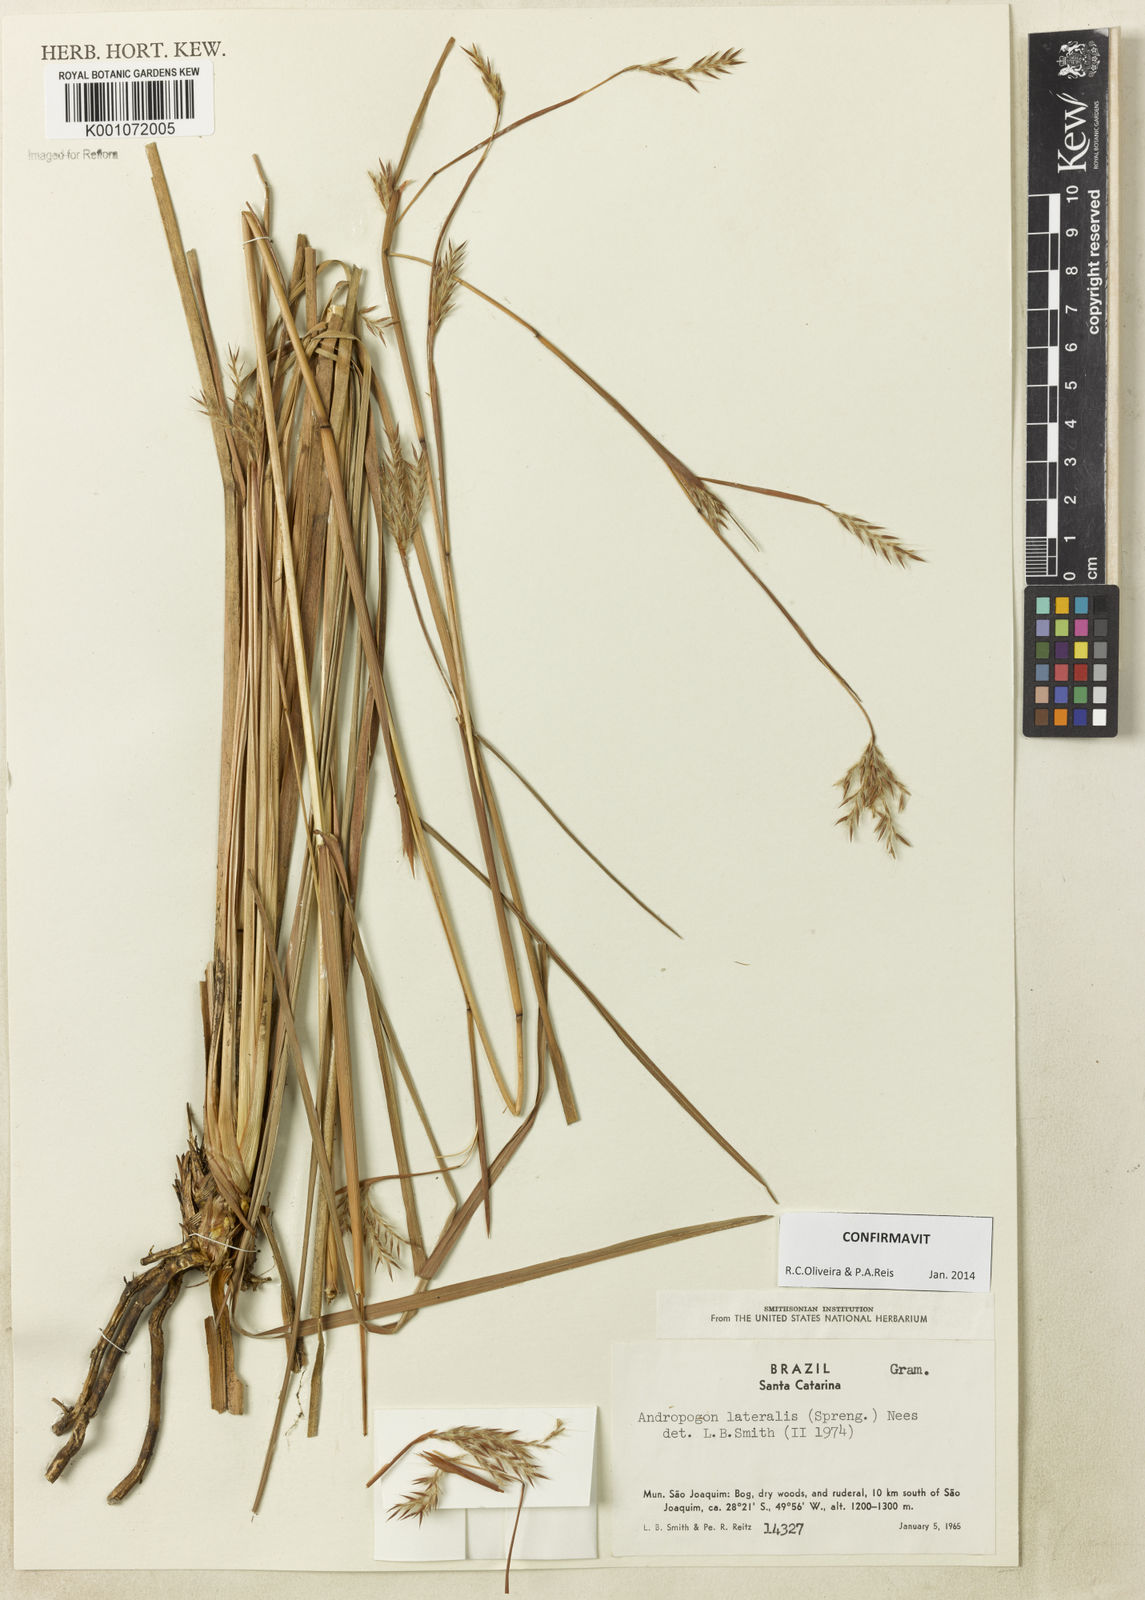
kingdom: Plantae
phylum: Tracheophyta
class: Liliopsida
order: Poales
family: Poaceae
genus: Andropogon
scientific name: Andropogon lateralis
